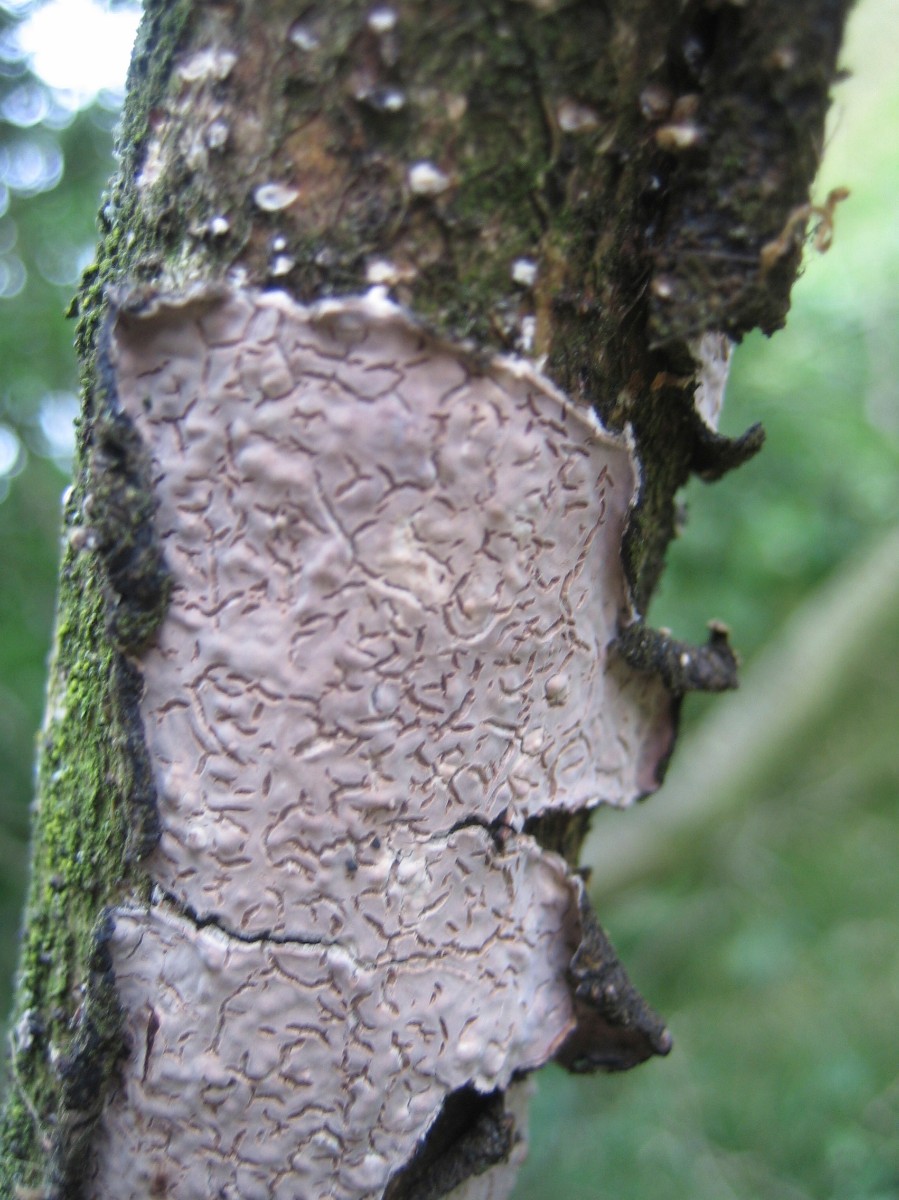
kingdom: Fungi
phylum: Basidiomycota
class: Agaricomycetes
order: Russulales
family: Peniophoraceae
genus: Peniophora
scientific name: Peniophora quercina
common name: ege-voksskind
